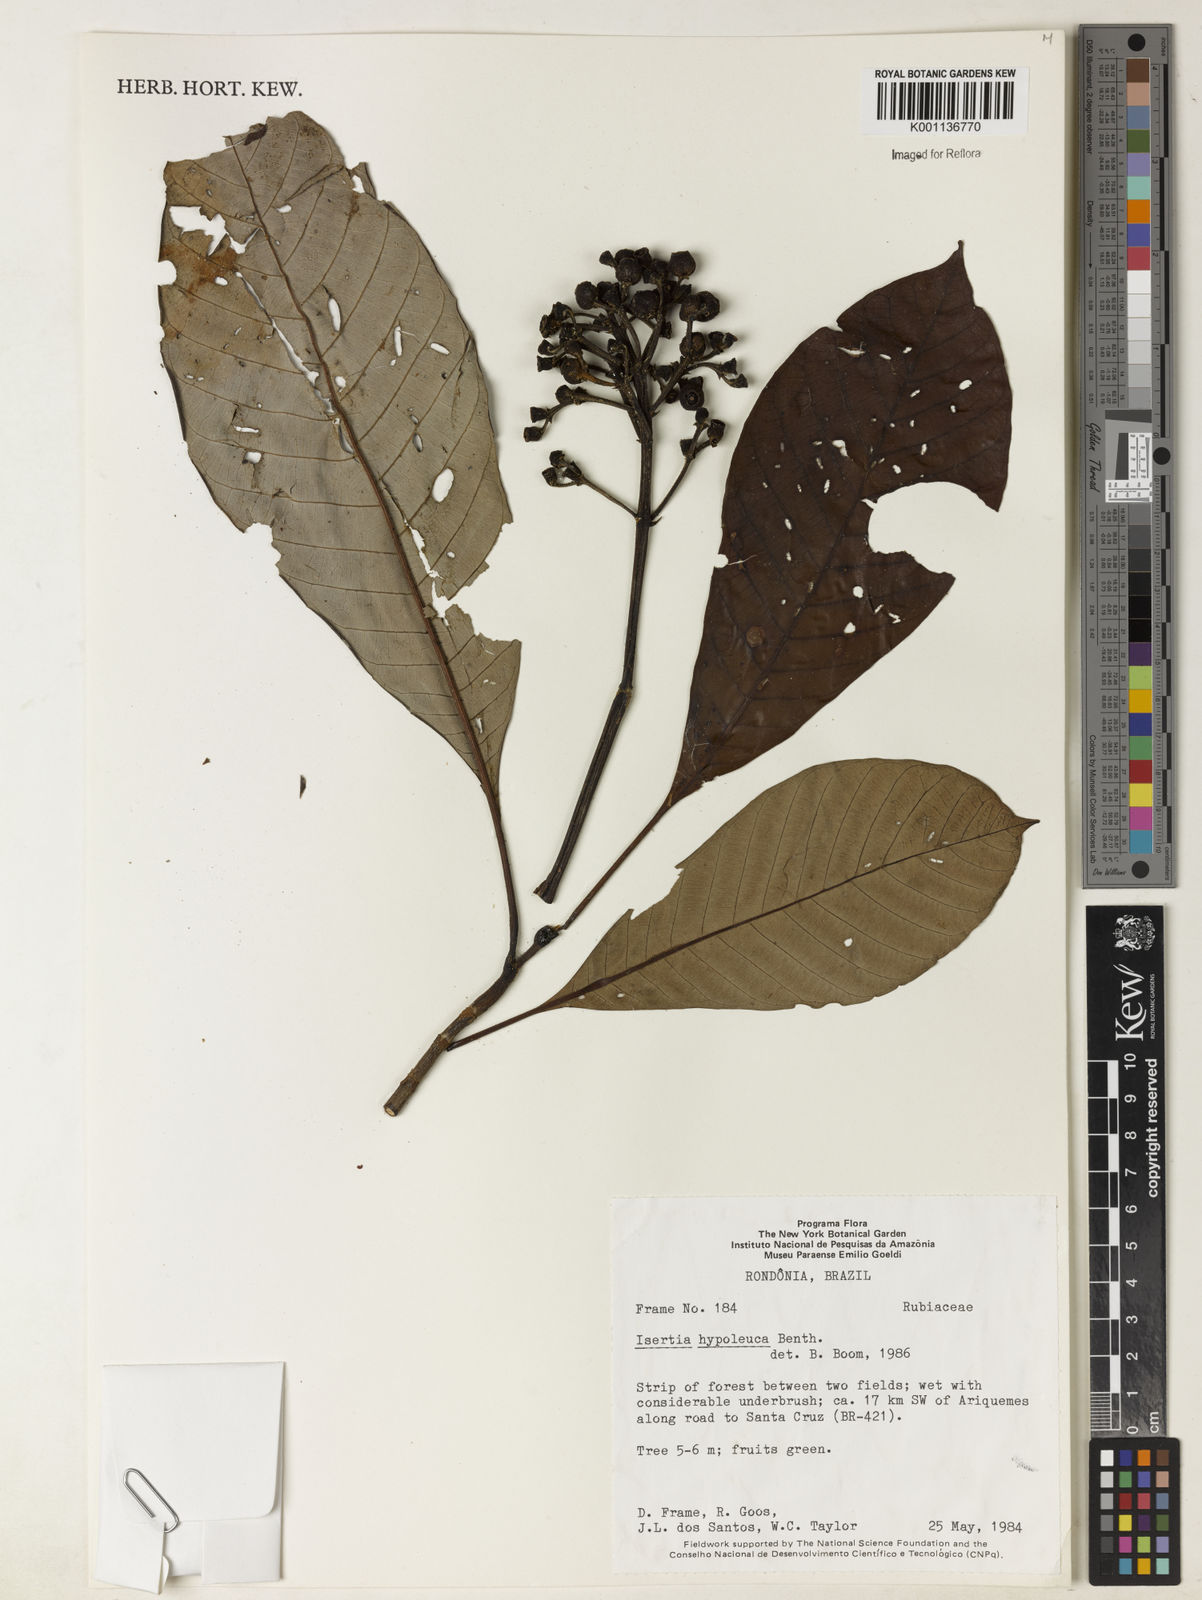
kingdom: Plantae
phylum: Tracheophyta
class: Magnoliopsida
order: Gentianales
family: Rubiaceae
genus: Isertia
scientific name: Isertia hypoleuca
